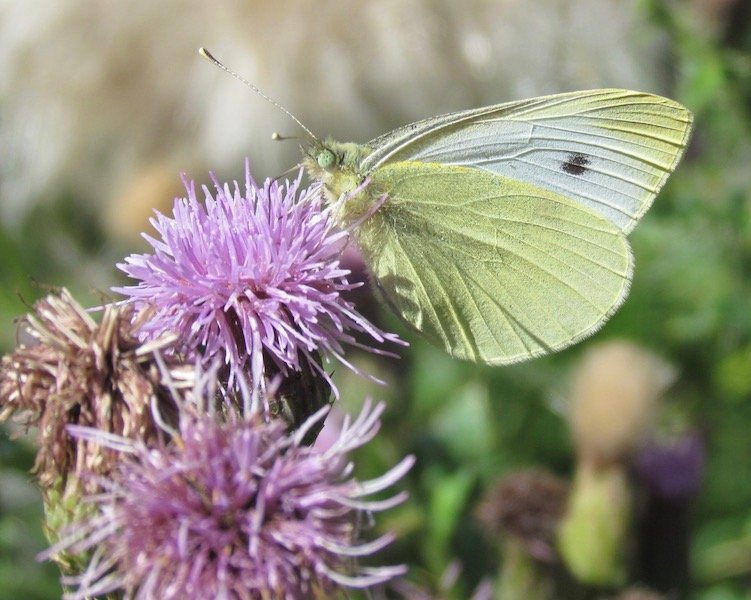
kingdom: Animalia
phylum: Arthropoda
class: Insecta
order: Lepidoptera
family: Pieridae
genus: Pieris
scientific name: Pieris rapae
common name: Cabbage White
